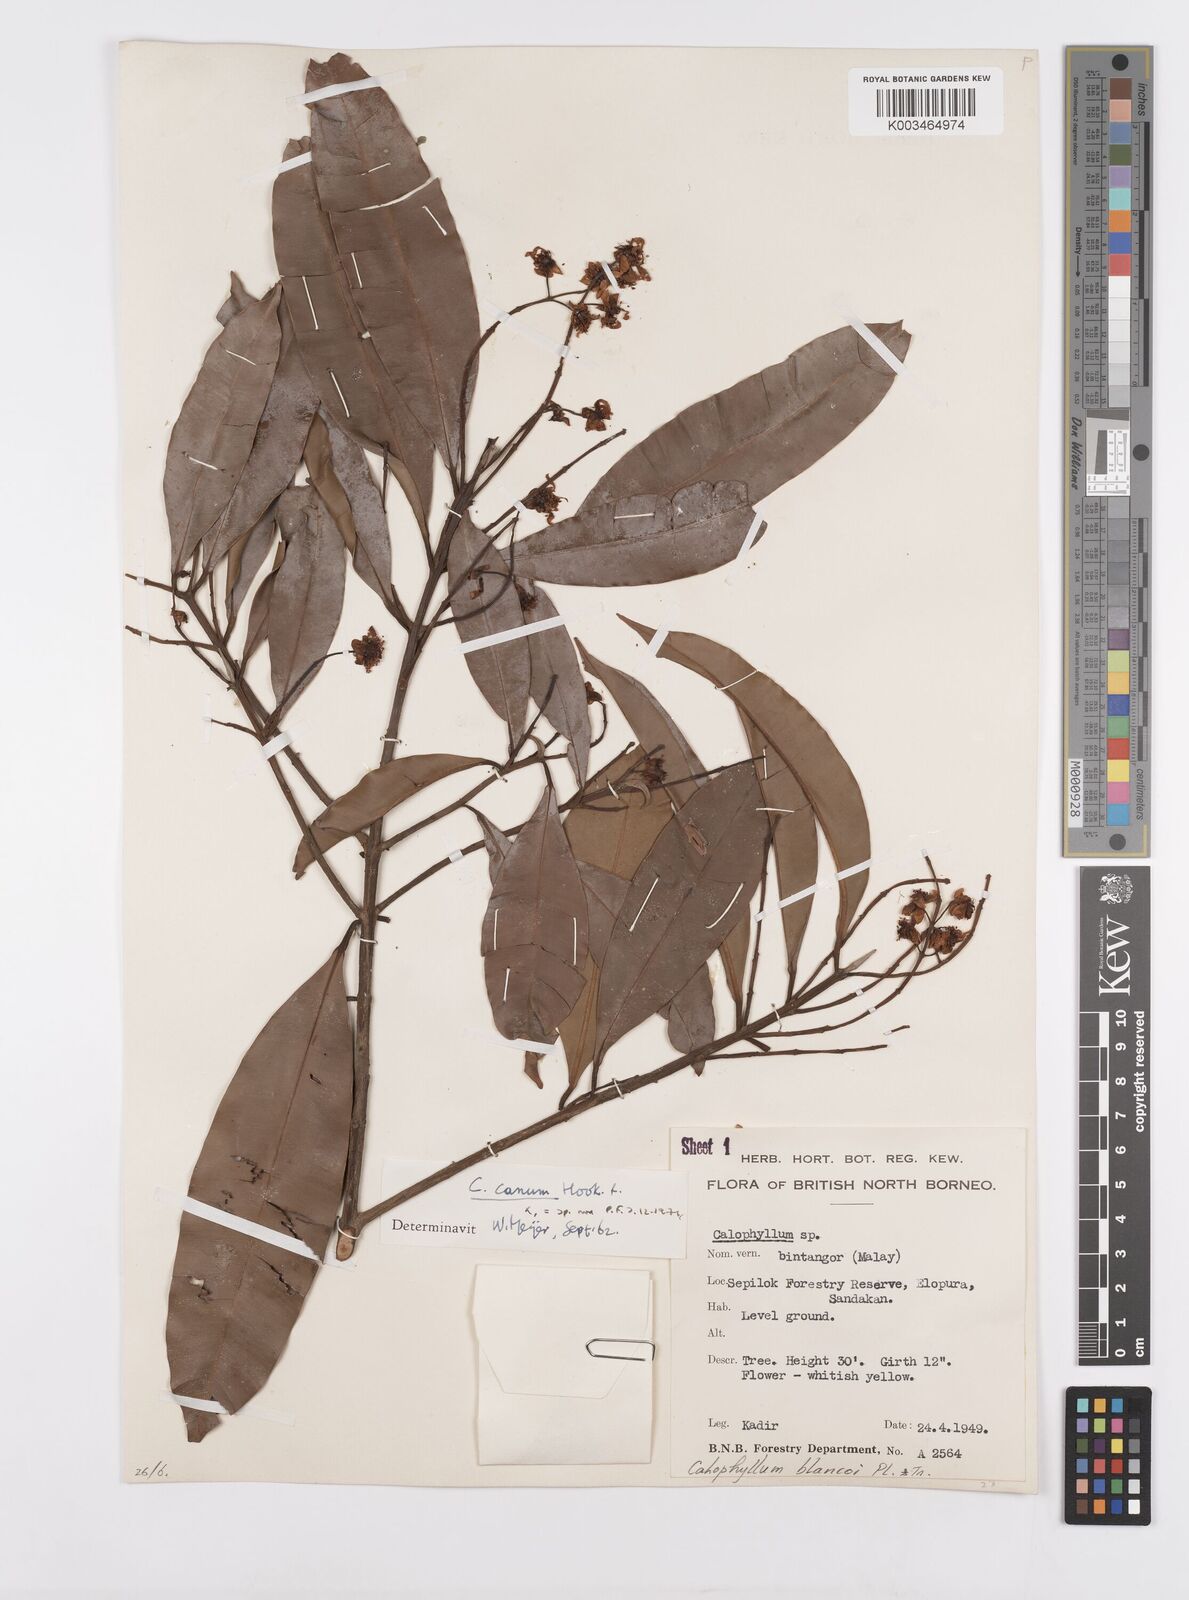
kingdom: Plantae
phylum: Tracheophyta
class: Magnoliopsida
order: Malpighiales
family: Calophyllaceae
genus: Calophyllum
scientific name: Calophyllum blancoi
